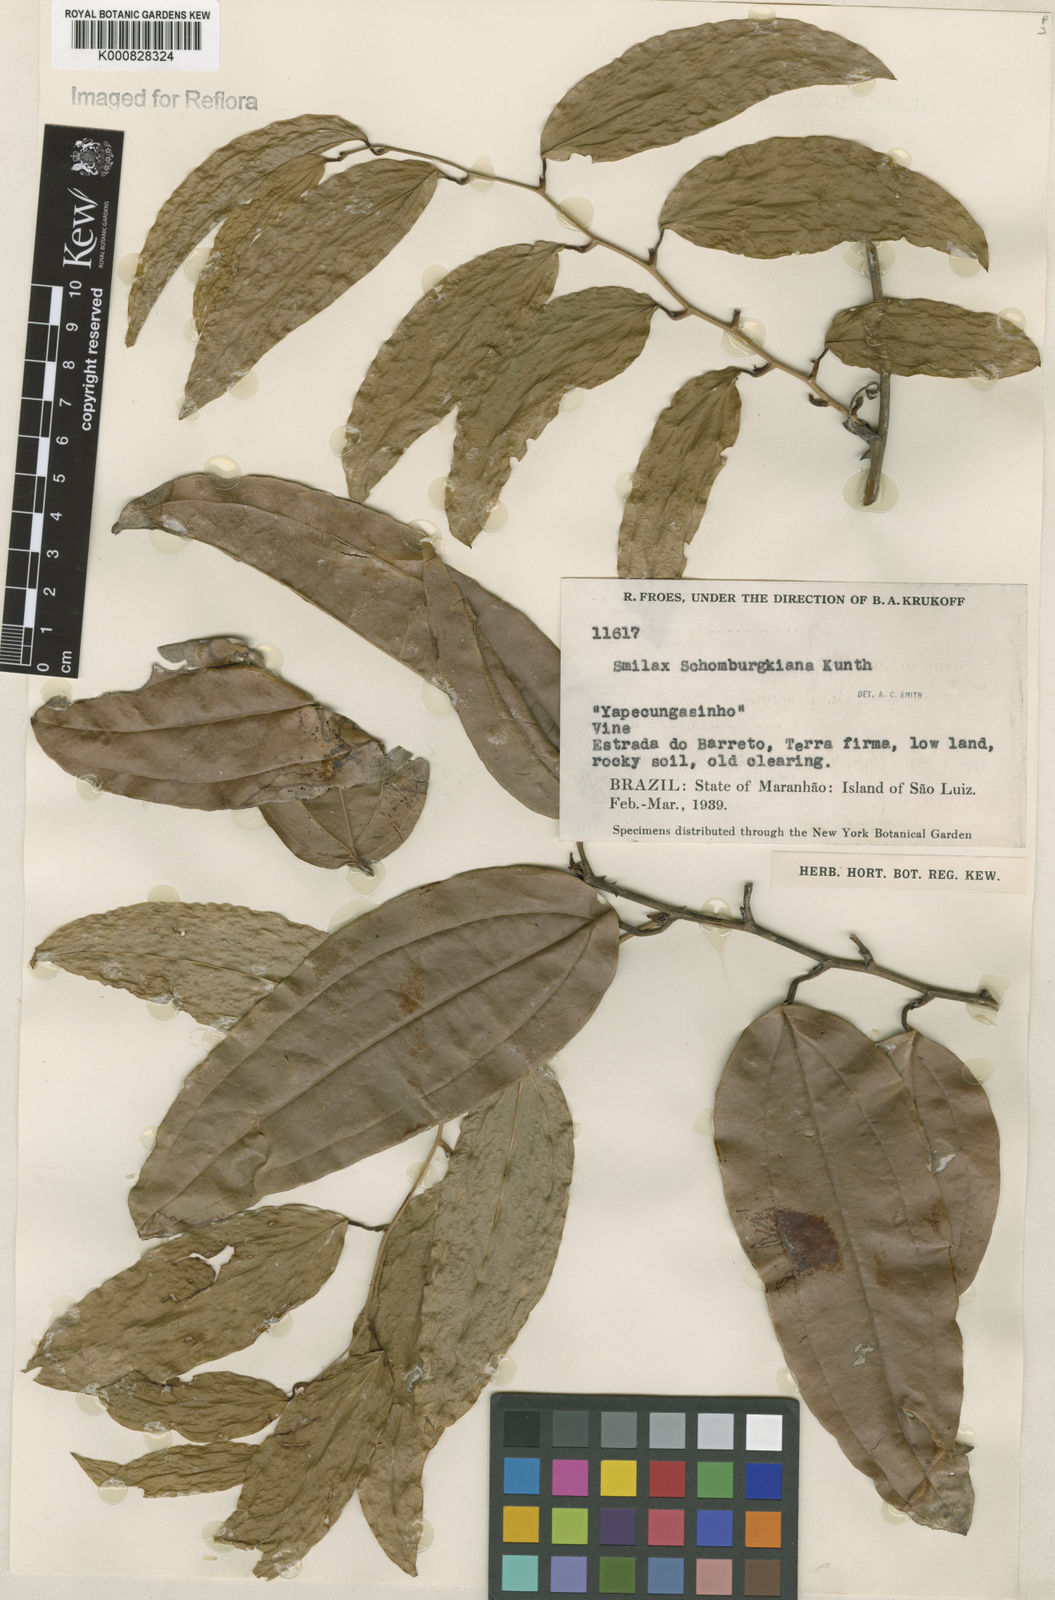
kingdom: Plantae
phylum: Tracheophyta
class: Liliopsida
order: Liliales
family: Smilacaceae
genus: Smilax
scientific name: Smilax schomburgkiana
